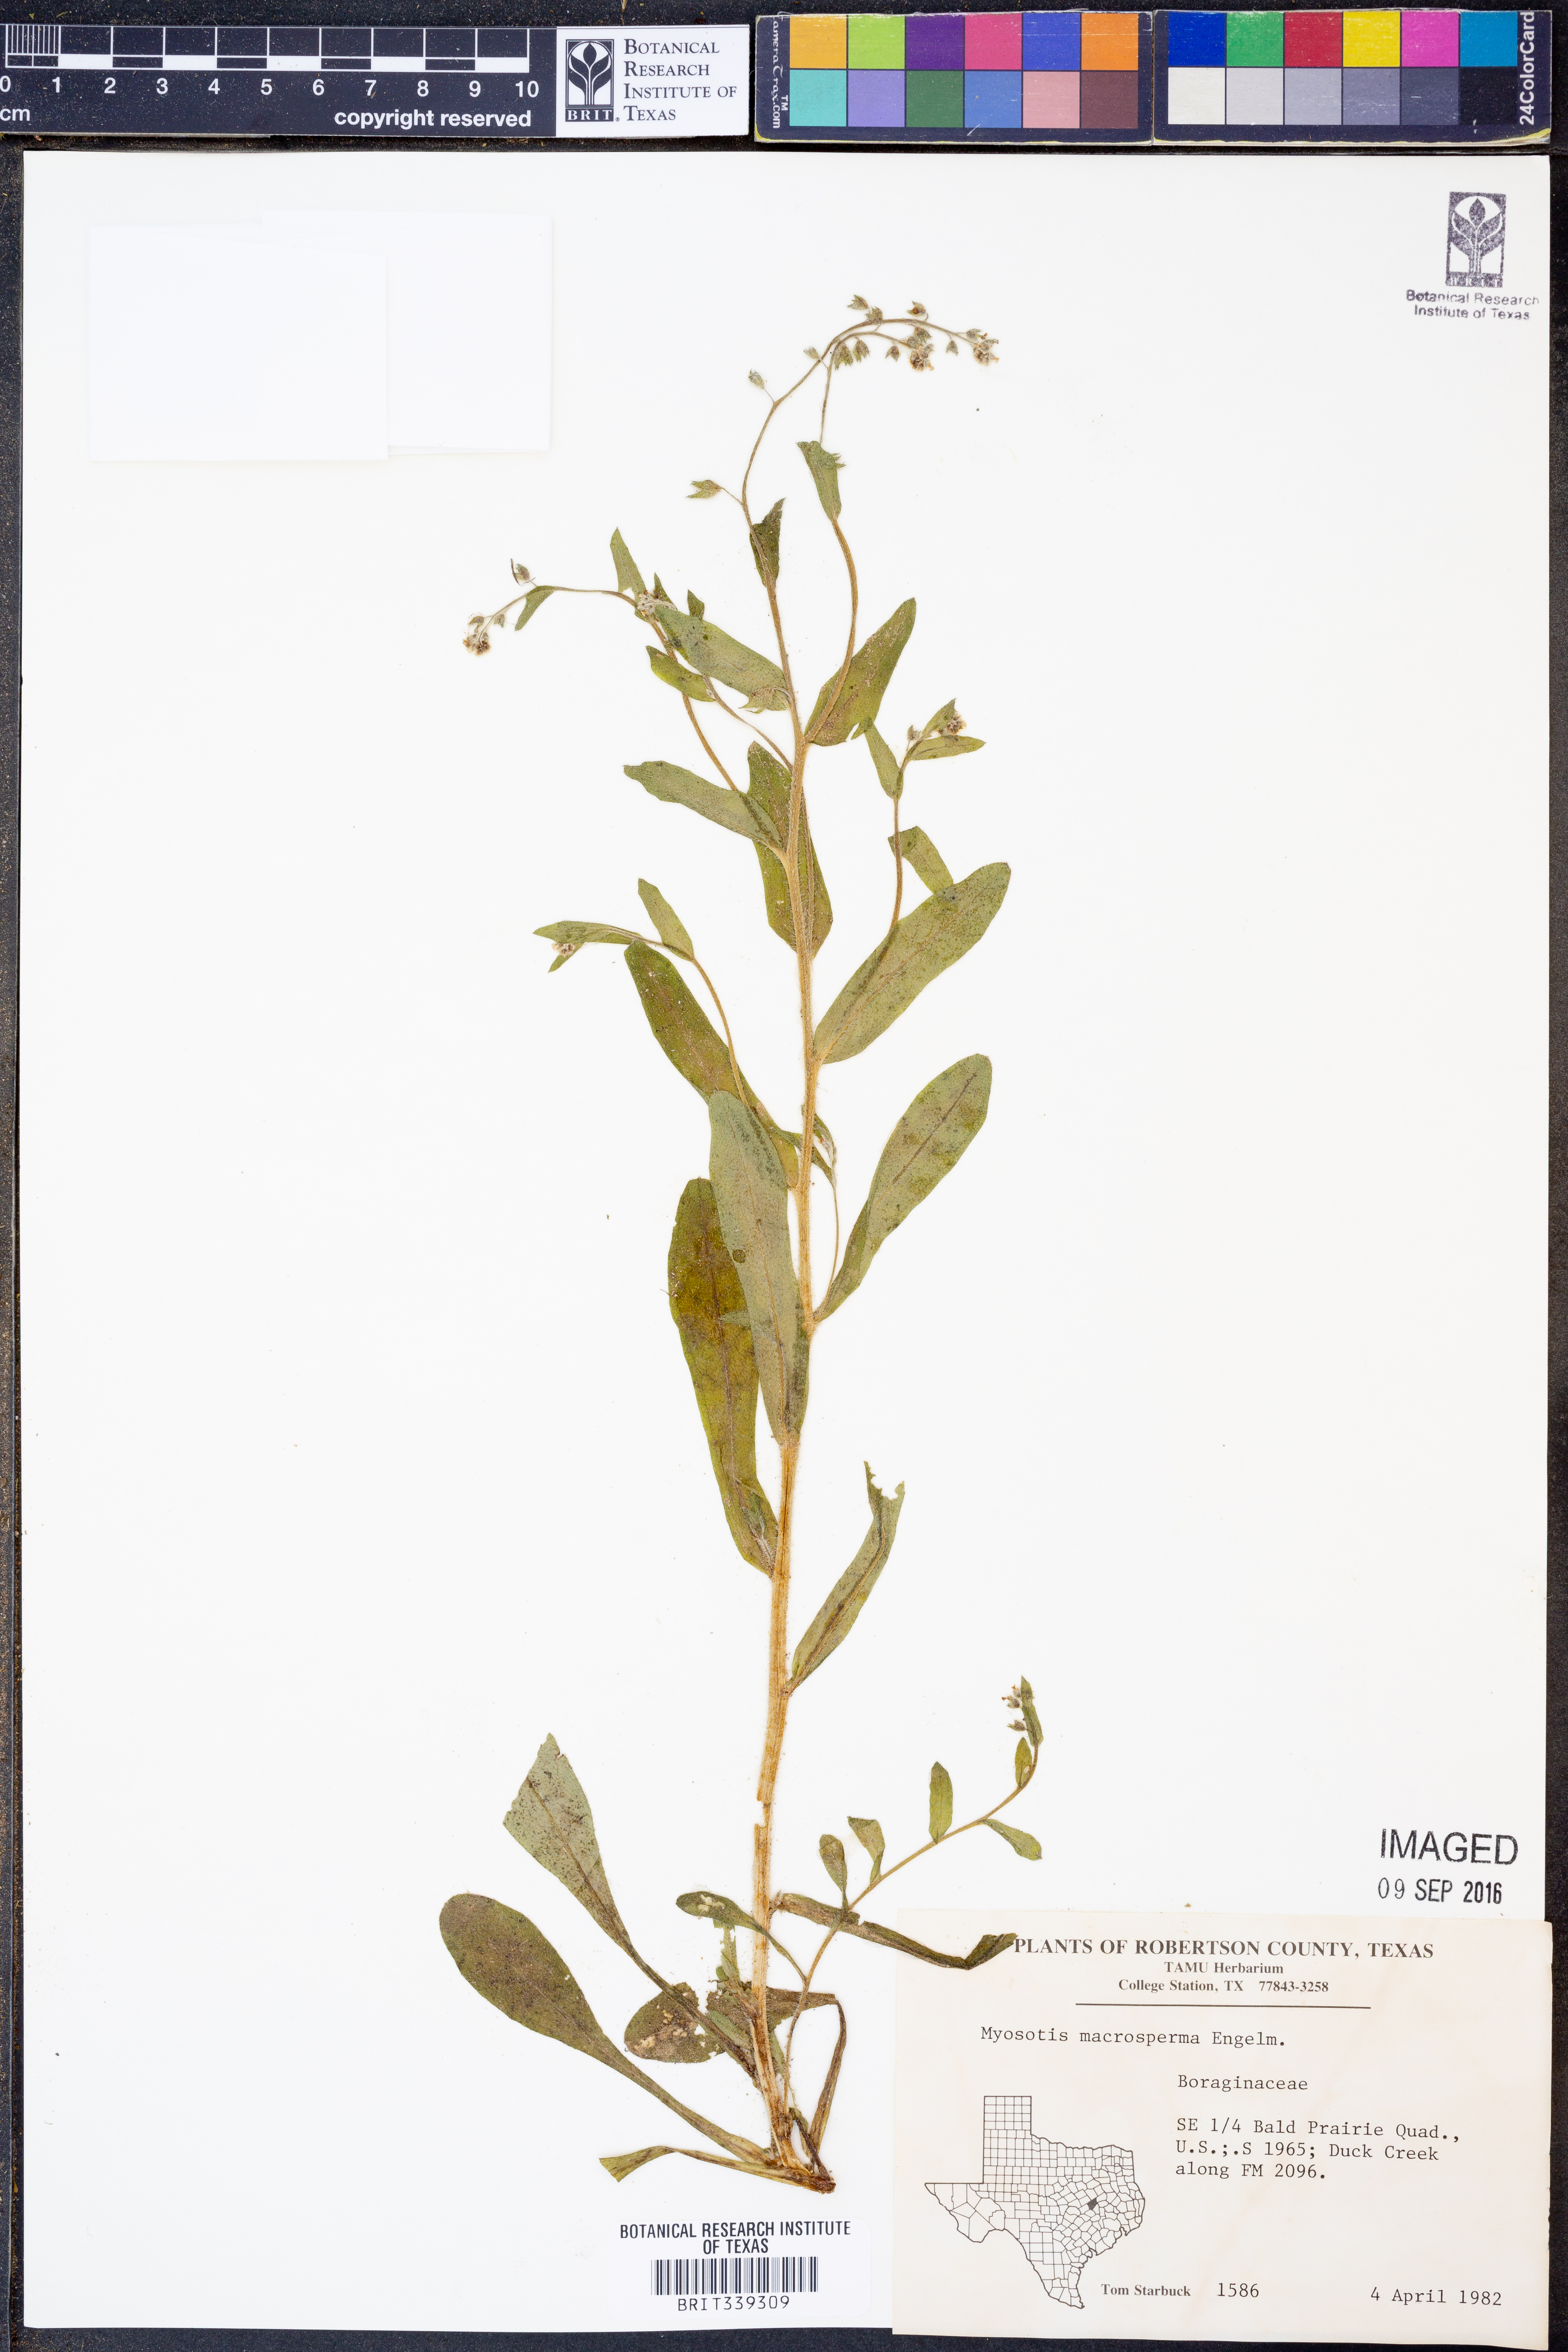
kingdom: Plantae
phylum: Tracheophyta
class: Magnoliopsida
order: Boraginales
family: Boraginaceae
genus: Myosotis
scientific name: Myosotis macrosperma
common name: Large-seed forget-me-not
